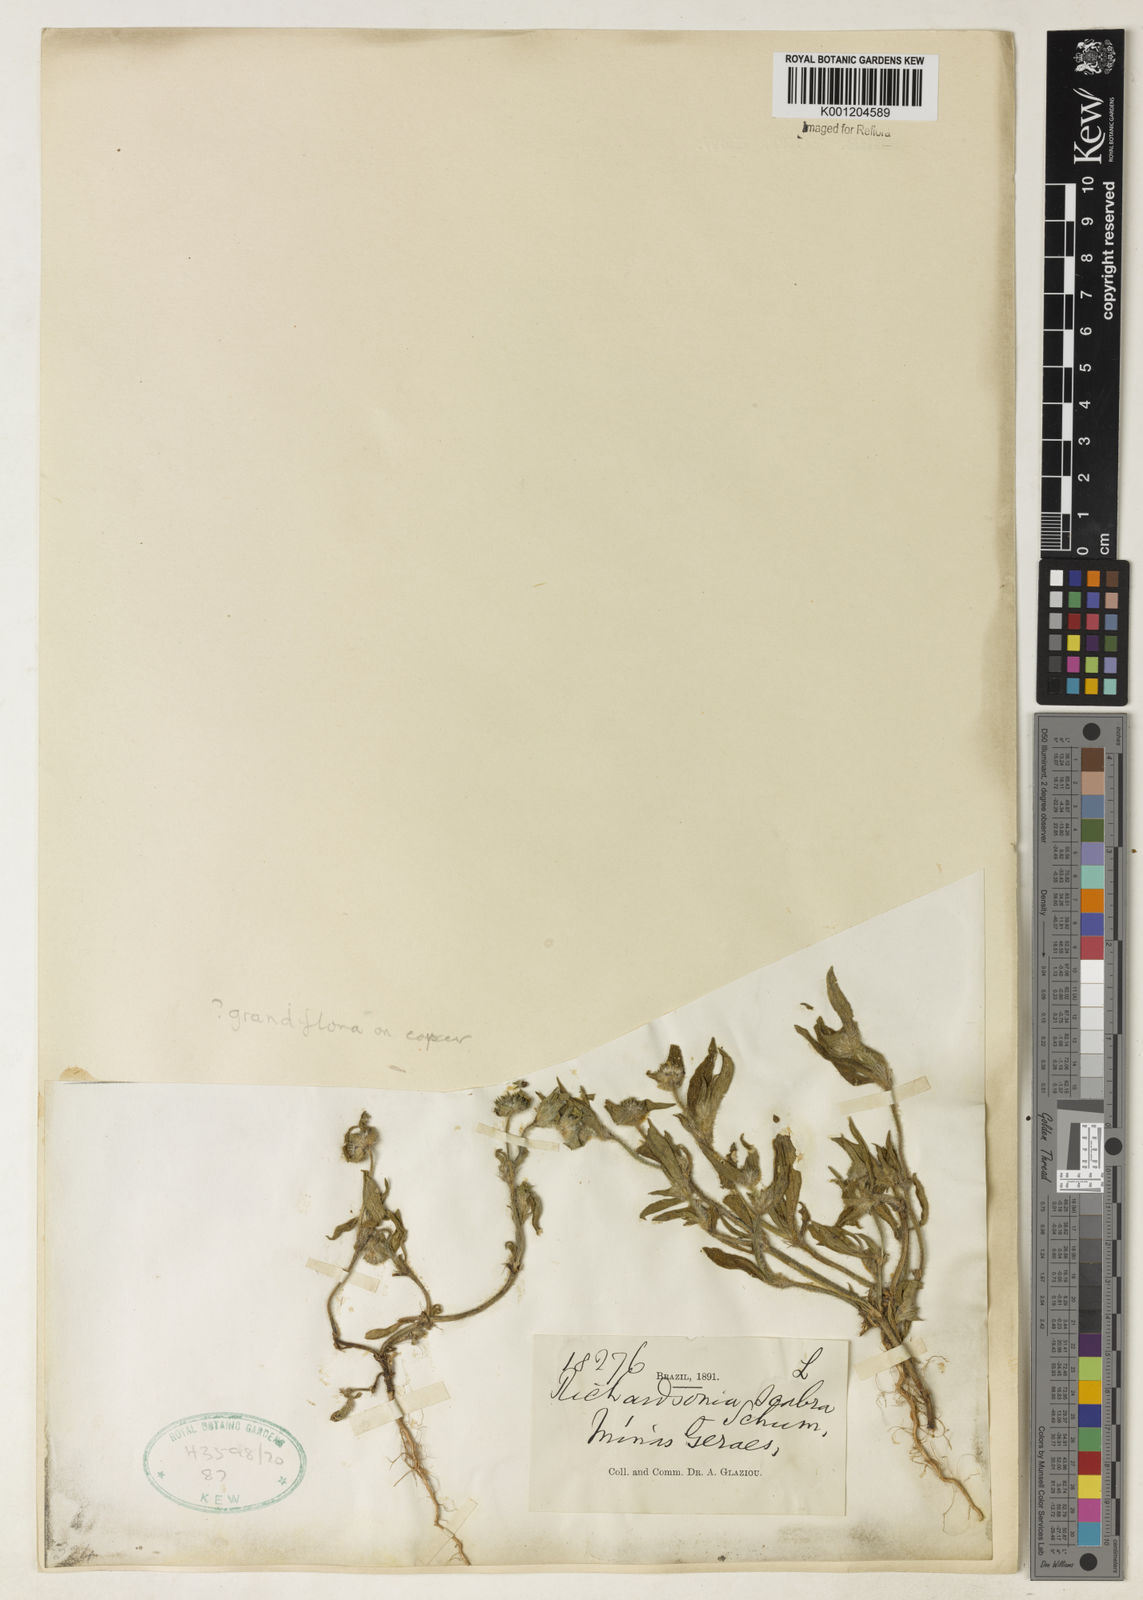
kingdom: Plantae
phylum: Tracheophyta
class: Magnoliopsida
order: Gentianales
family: Rubiaceae
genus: Richardia
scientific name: Richardia grandiflora
